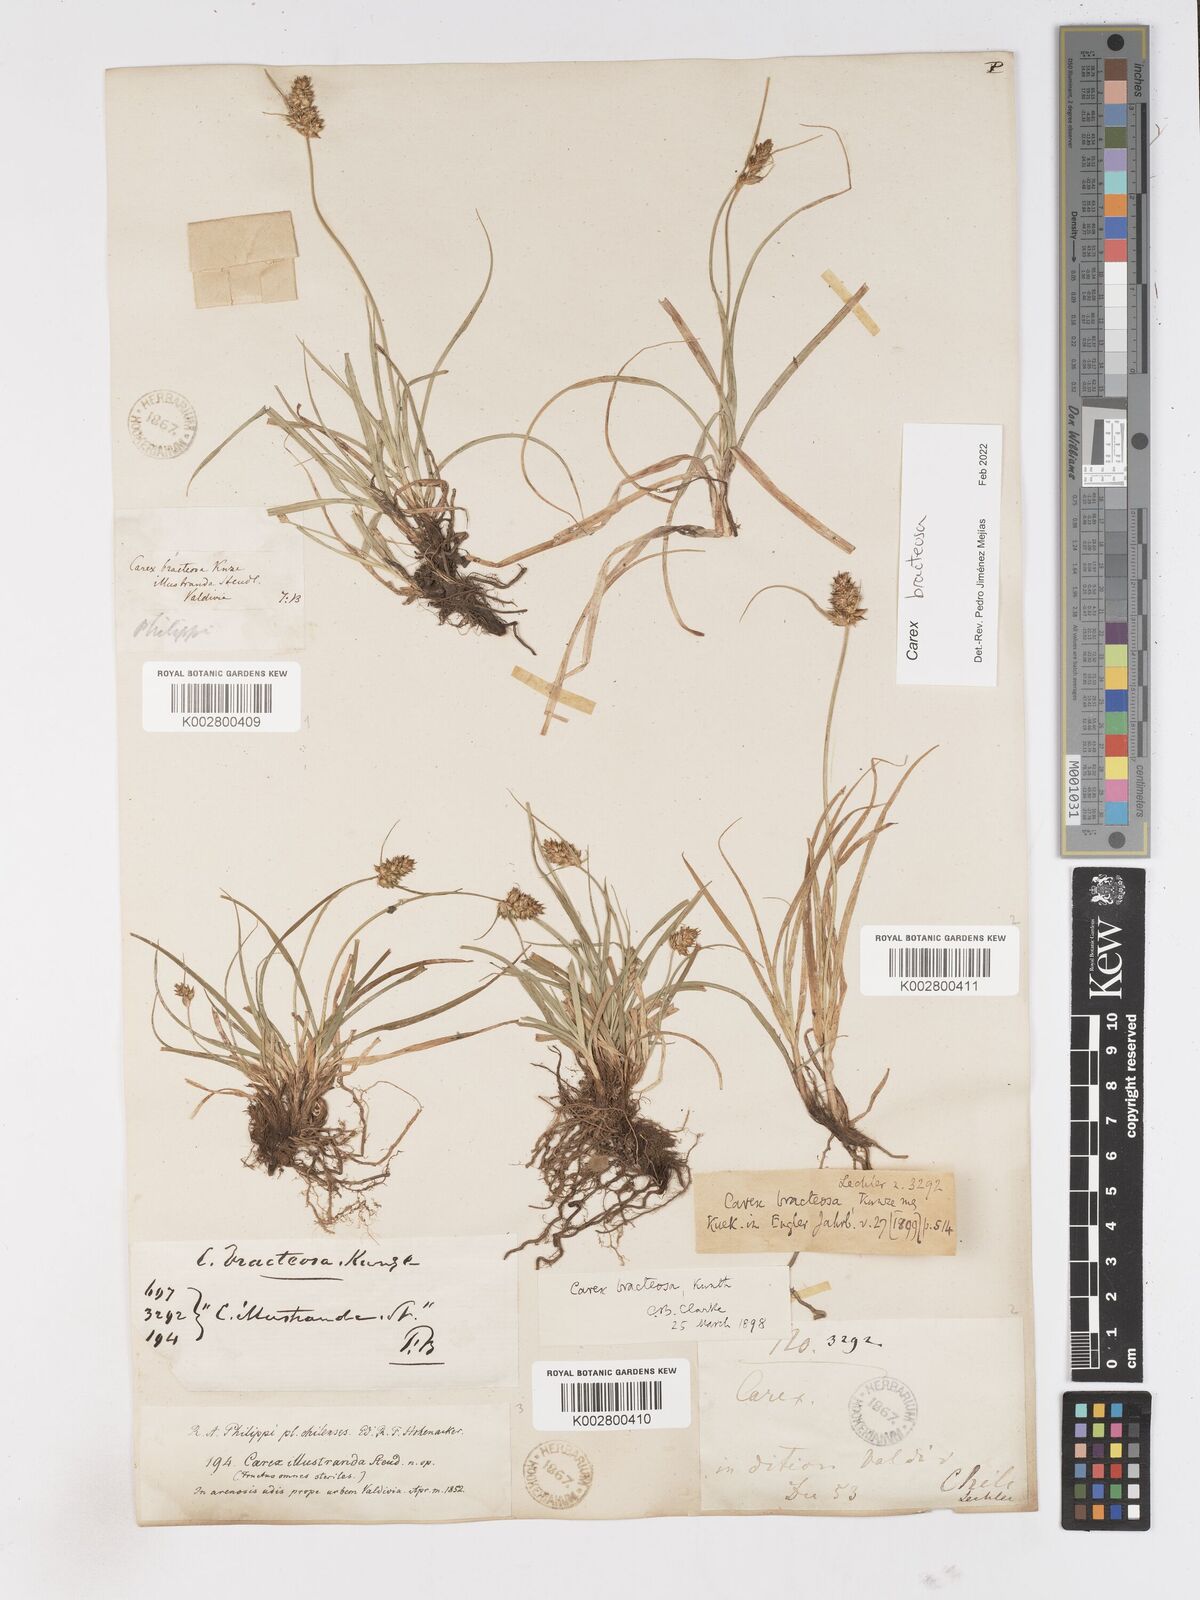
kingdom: Plantae
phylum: Tracheophyta
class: Liliopsida
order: Poales
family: Cyperaceae
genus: Carex
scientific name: Carex bracteosa
